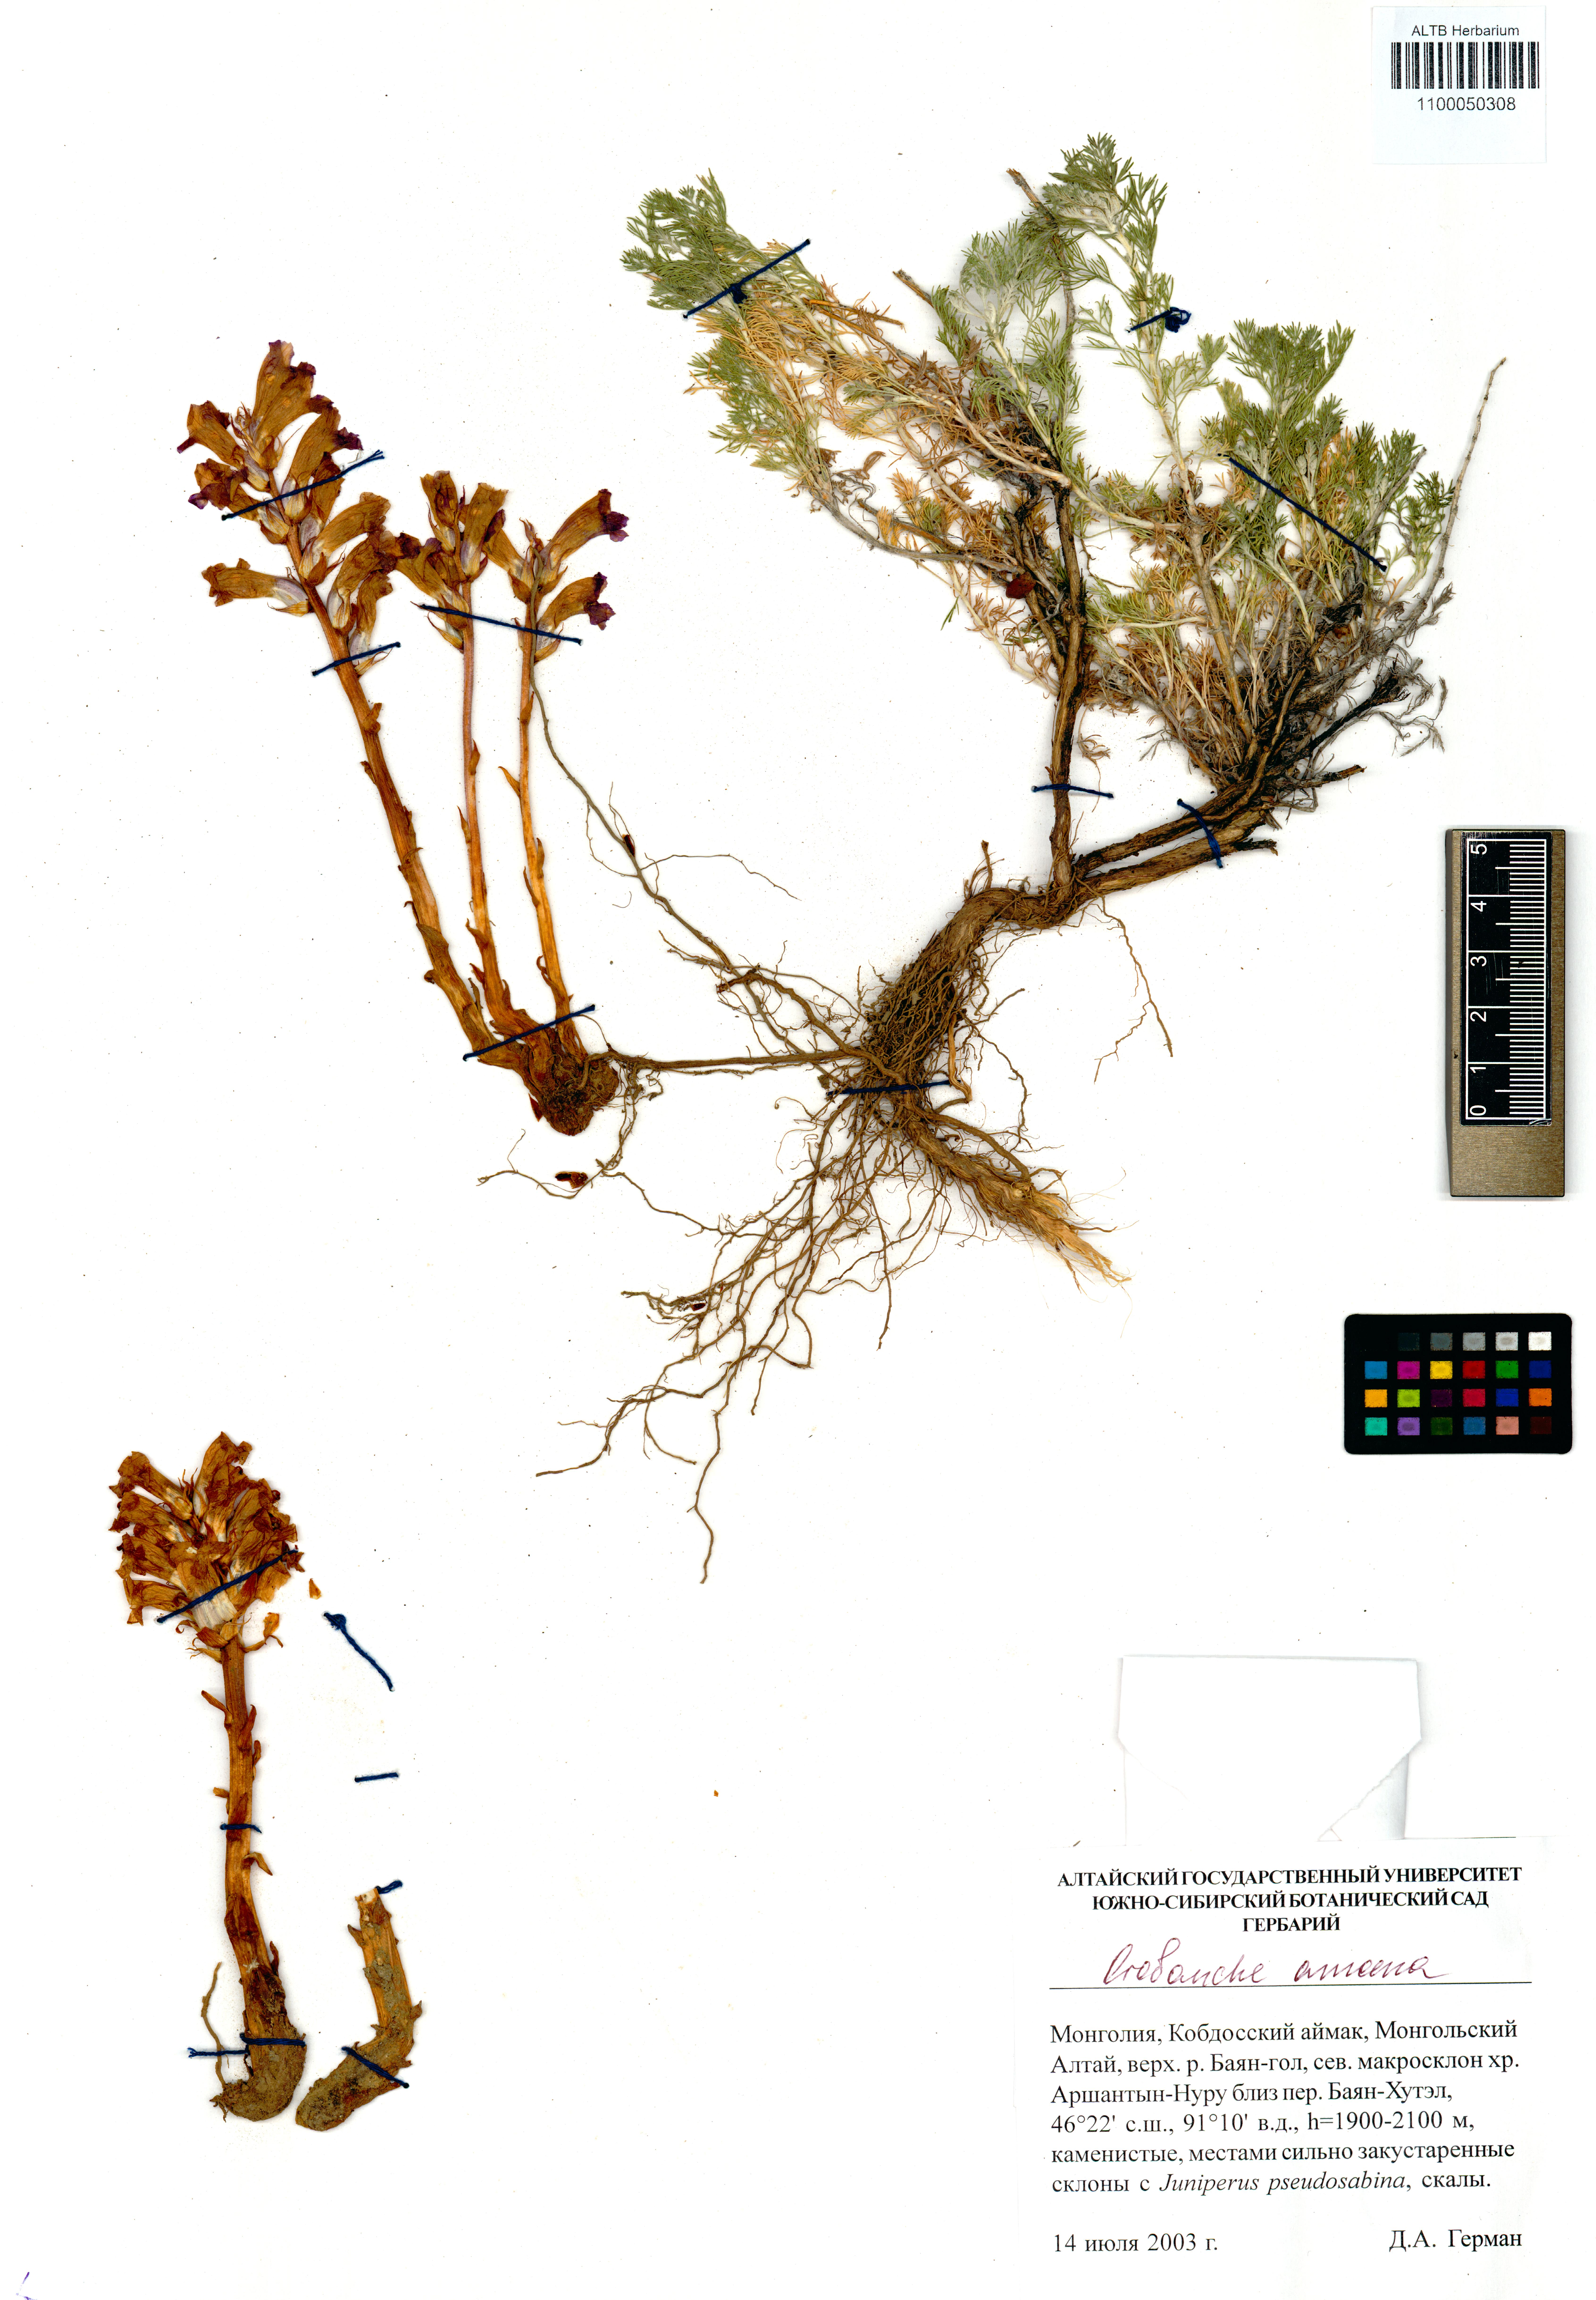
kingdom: Plantae
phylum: Tracheophyta
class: Magnoliopsida
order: Lamiales
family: Orobanchaceae
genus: Orobanche
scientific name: Orobanche amoena
